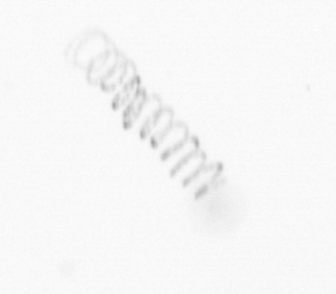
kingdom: Chromista
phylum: Ochrophyta
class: Bacillariophyceae
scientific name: Bacillariophyceae
